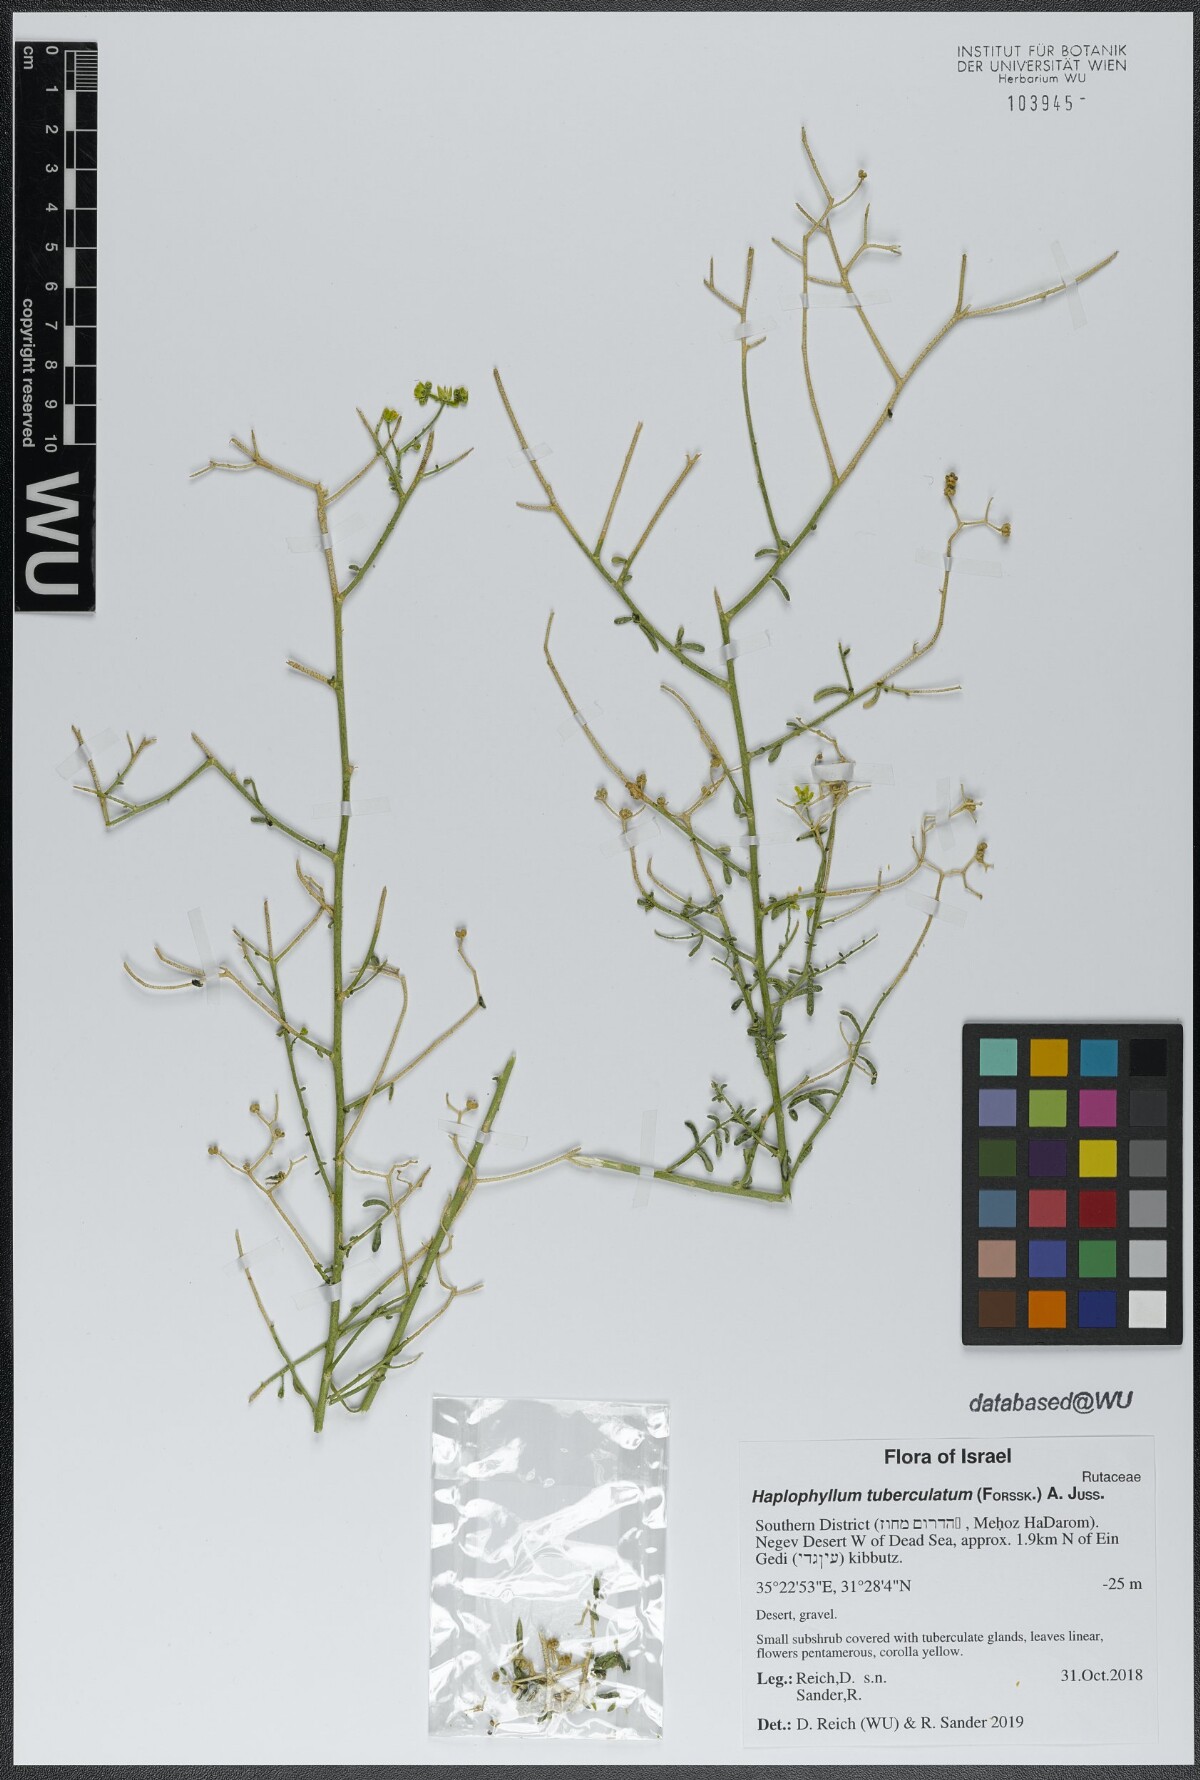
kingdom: Plantae
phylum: Tracheophyta
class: Magnoliopsida
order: Sapindales
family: Rutaceae
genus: Haplophyllum
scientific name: Haplophyllum tuberculatum
